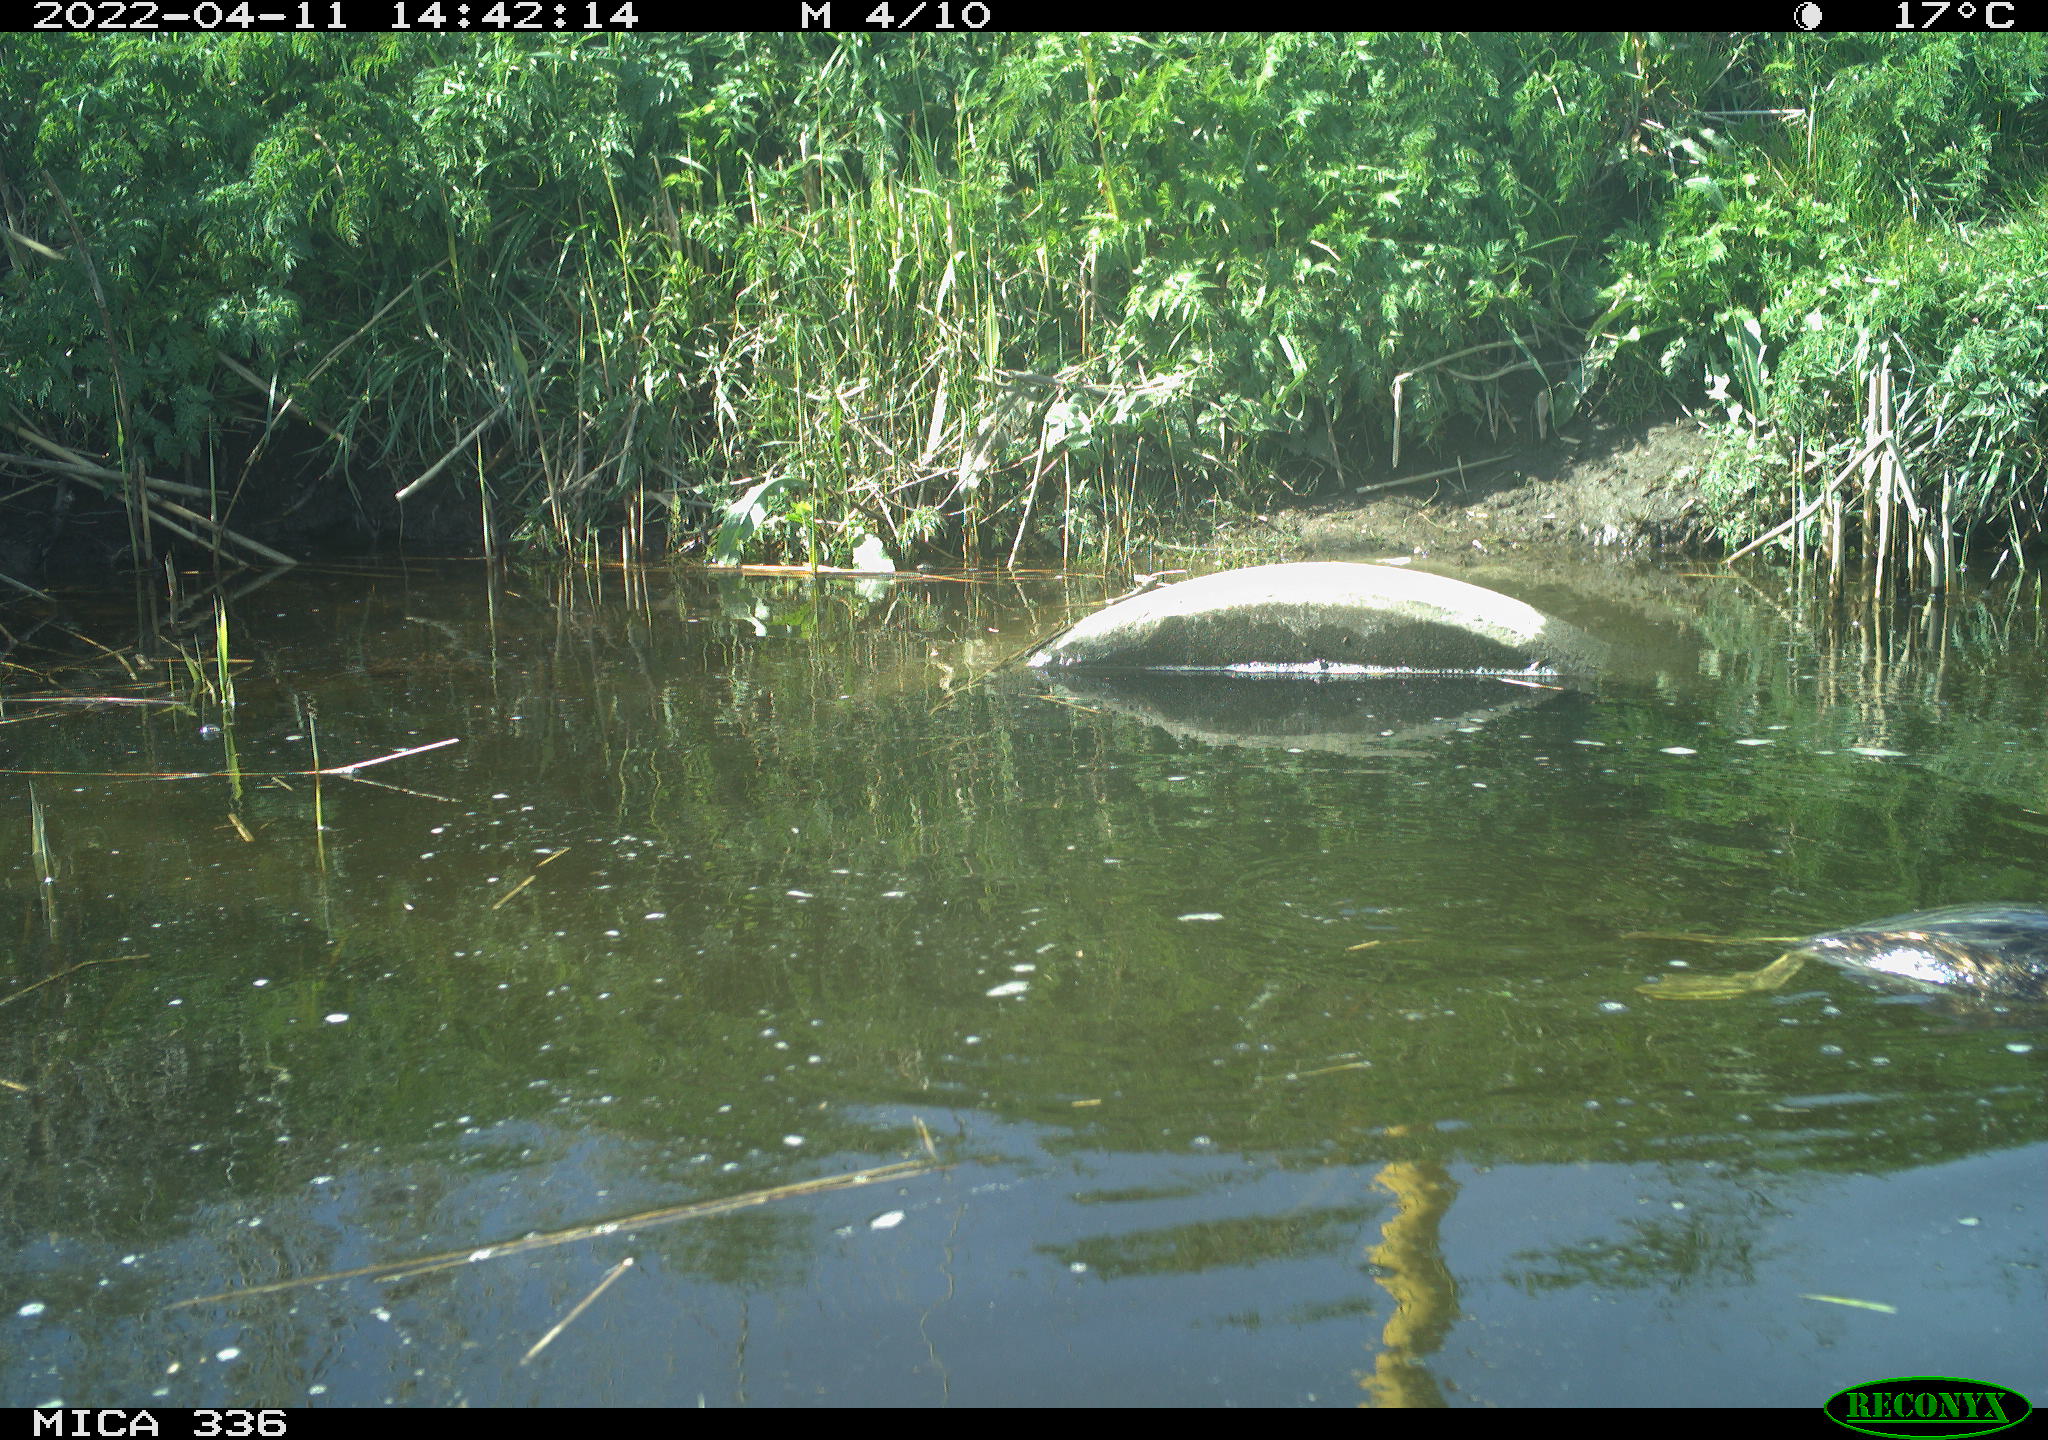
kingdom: Animalia
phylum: Chordata
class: Aves
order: Podicipediformes
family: Podicipedidae
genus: Podiceps
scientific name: Podiceps cristatus
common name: Great crested grebe
